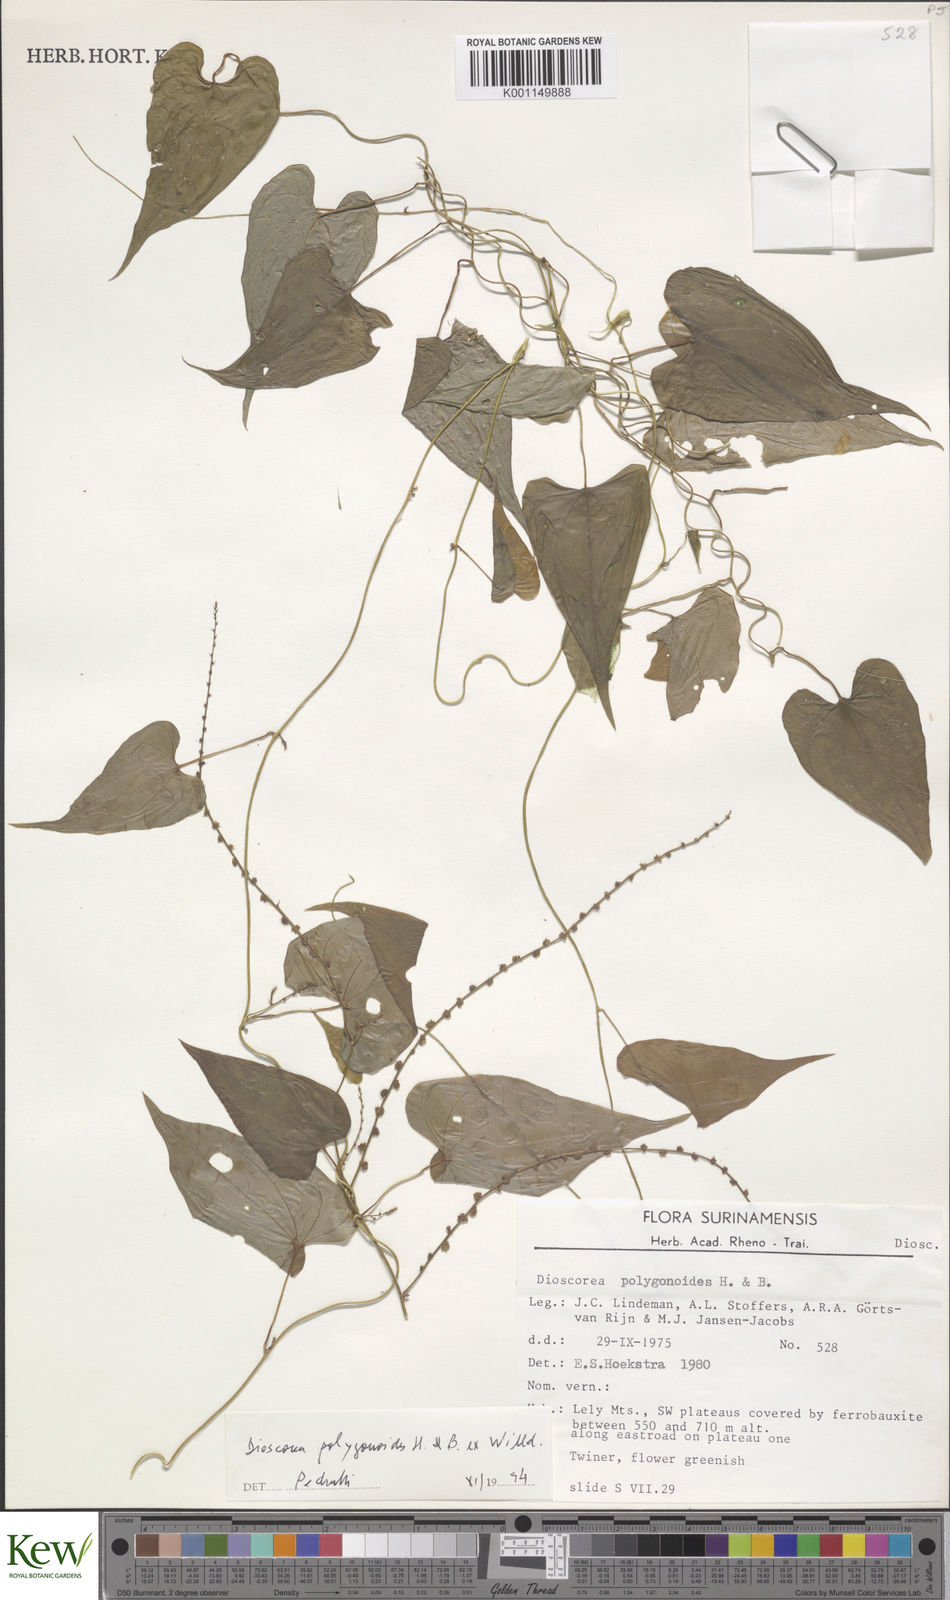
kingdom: Plantae
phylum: Tracheophyta
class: Liliopsida
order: Dioscoreales
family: Dioscoreaceae
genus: Dioscorea
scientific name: Dioscorea polygonoides
